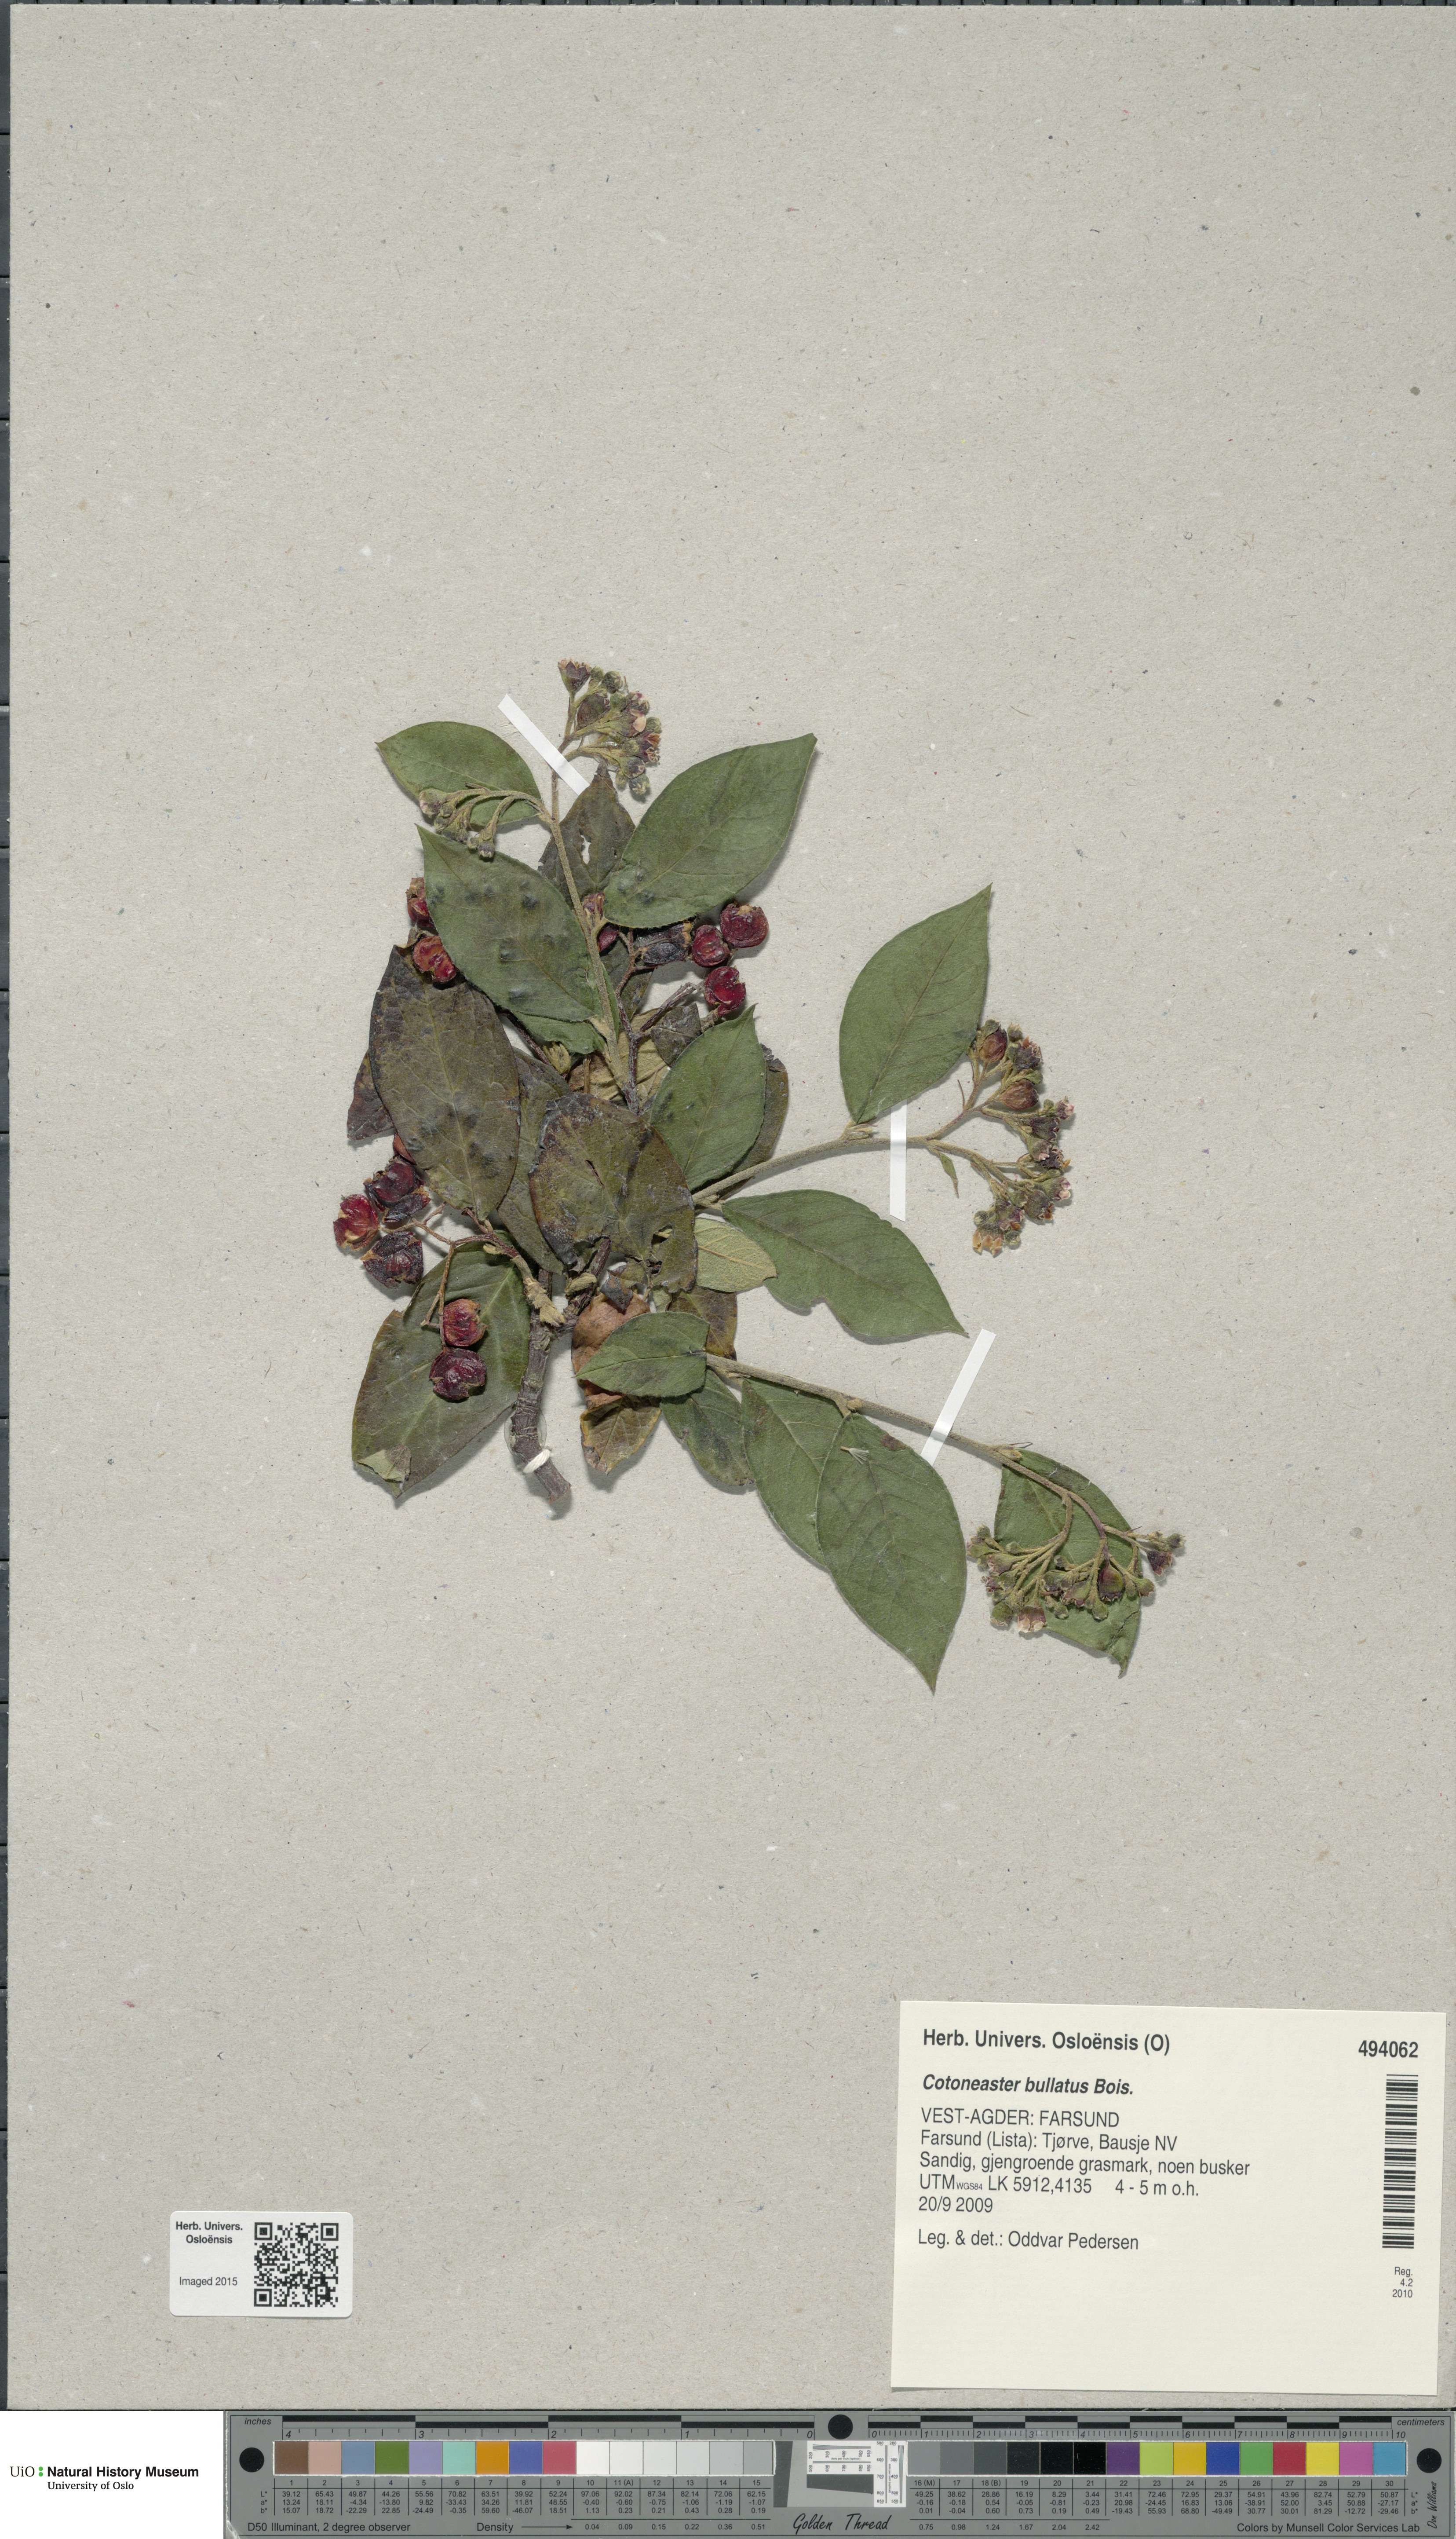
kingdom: Plantae
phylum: Tracheophyta
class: Magnoliopsida
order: Rosales
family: Rosaceae
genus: Cotoneaster
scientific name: Cotoneaster bullatus
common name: Hollyberry cotoneaster
